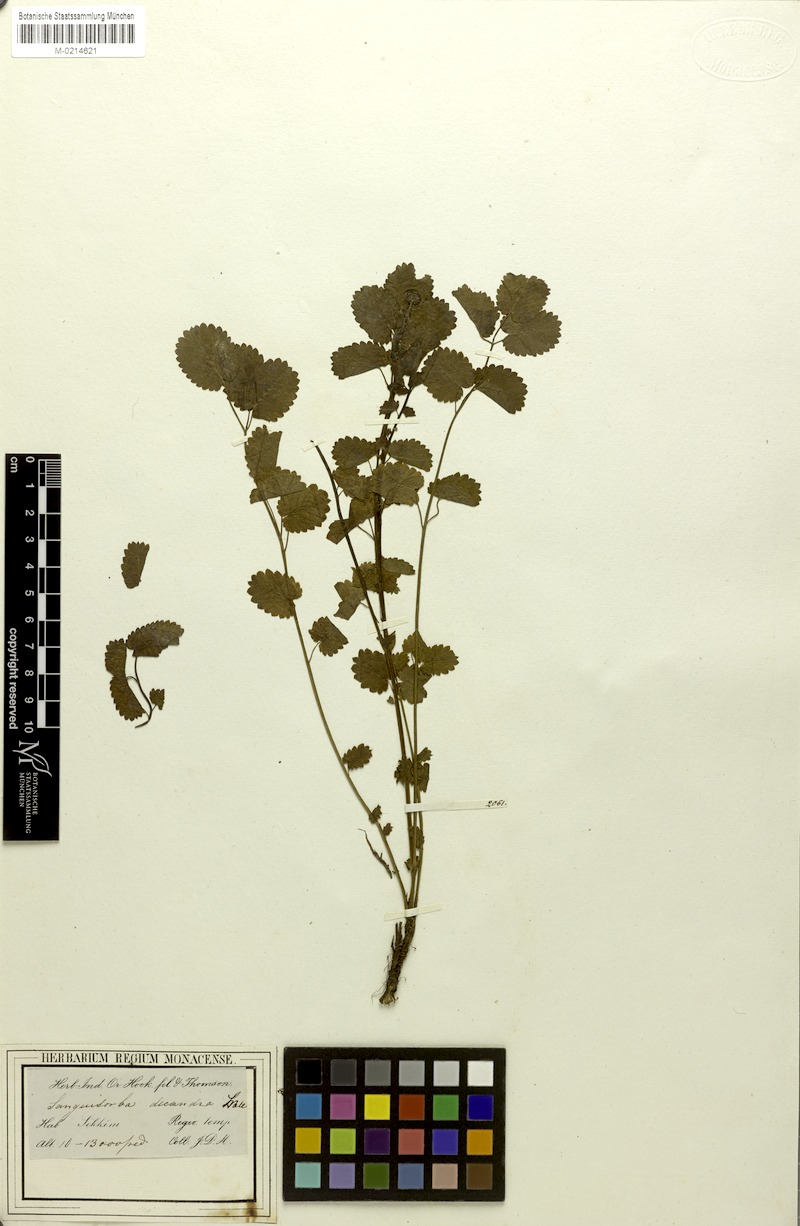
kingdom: Plantae
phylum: Tracheophyta
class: Magnoliopsida
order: Rosales
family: Rosaceae
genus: Poterium
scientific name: Poterium diandrum
